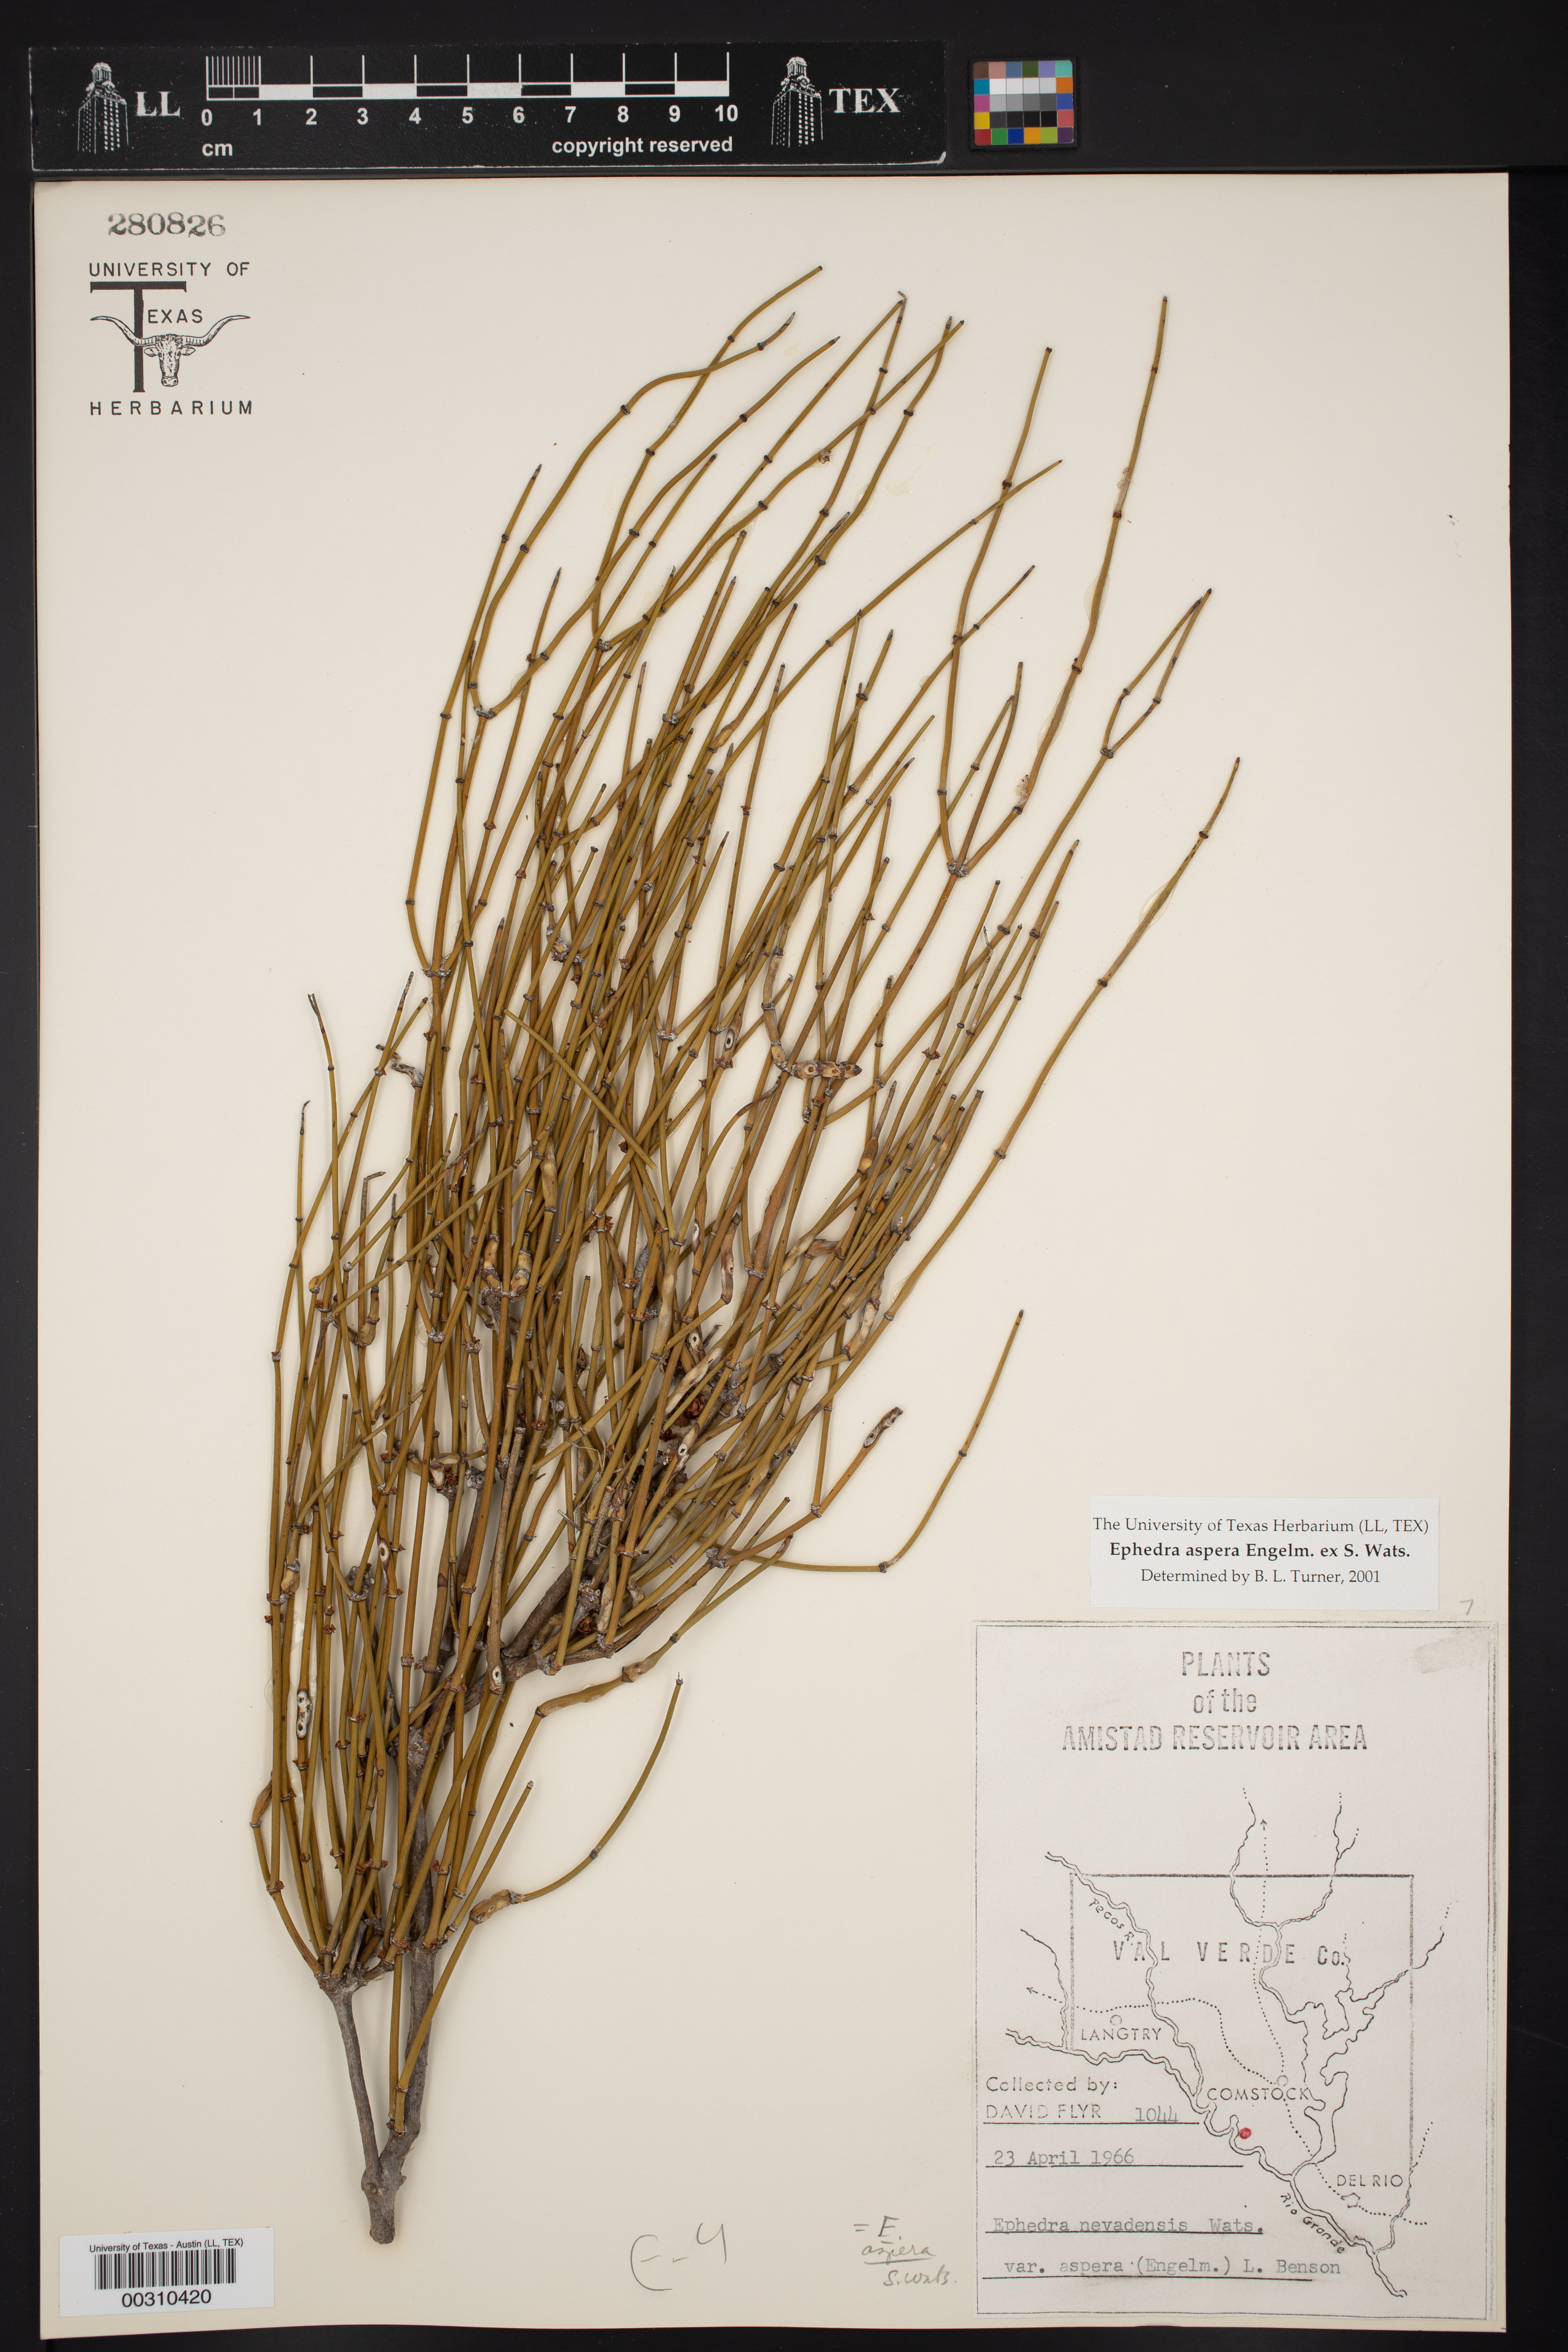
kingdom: Plantae
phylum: Tracheophyta
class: Gnetopsida
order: Ephedrales
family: Ephedraceae
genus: Ephedra
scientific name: Ephedra aspera
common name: Boundary ephedra
